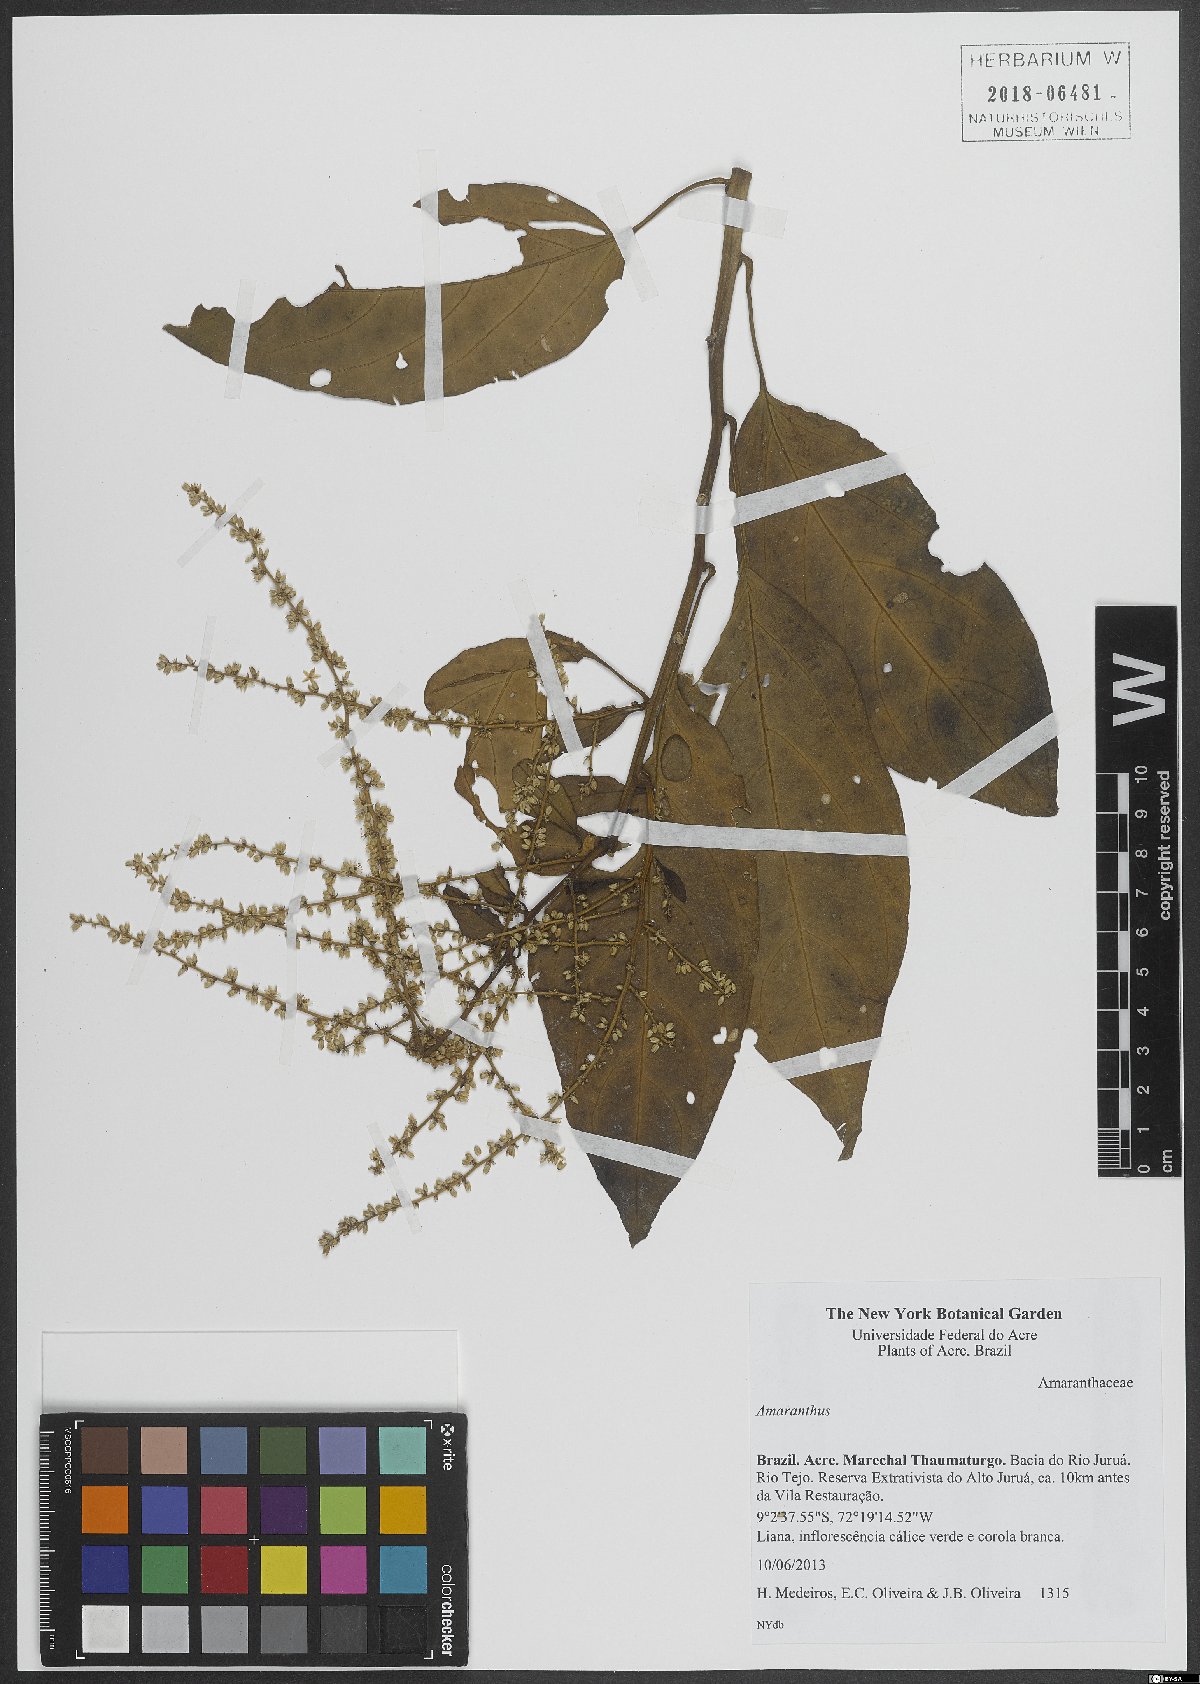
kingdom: Plantae
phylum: Tracheophyta
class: Magnoliopsida
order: Caryophyllales
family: Amaranthaceae
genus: Amaranthus
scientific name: Amaranthus
